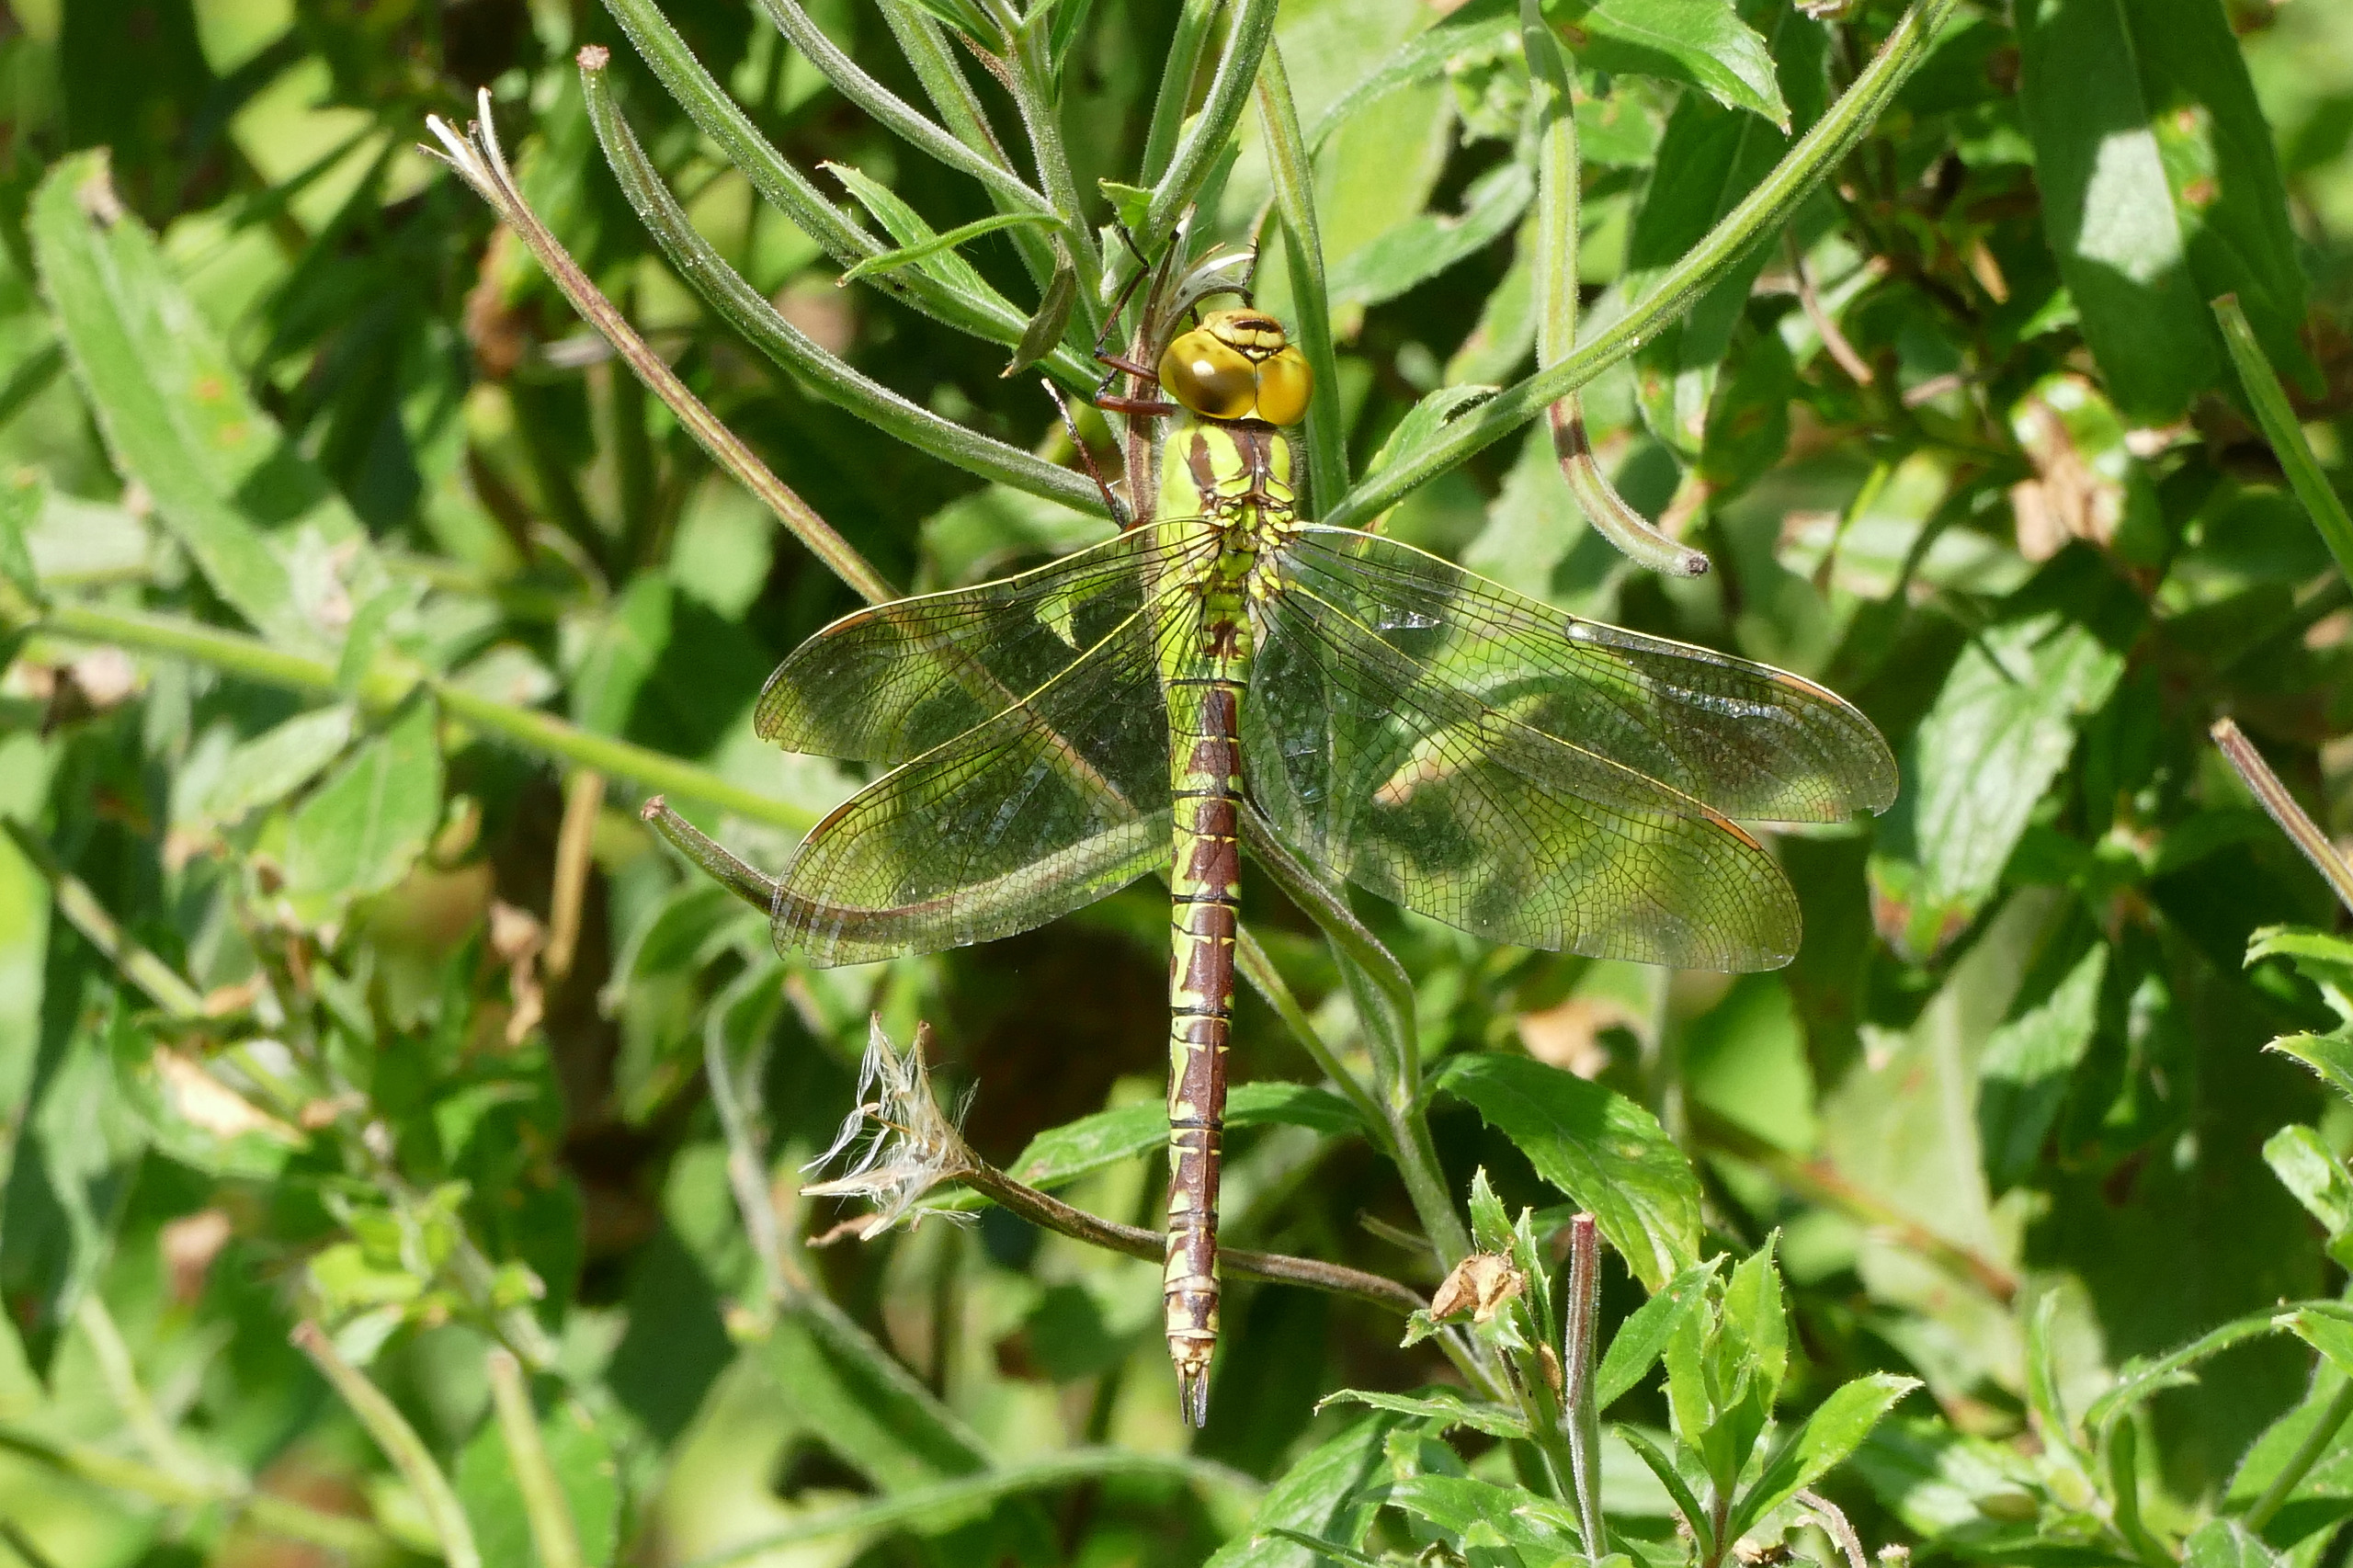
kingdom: Animalia
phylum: Arthropoda
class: Insecta
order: Odonata
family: Aeshnidae
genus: Aeshna
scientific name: Aeshna viridis
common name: Grøn mosaikguldsmed
